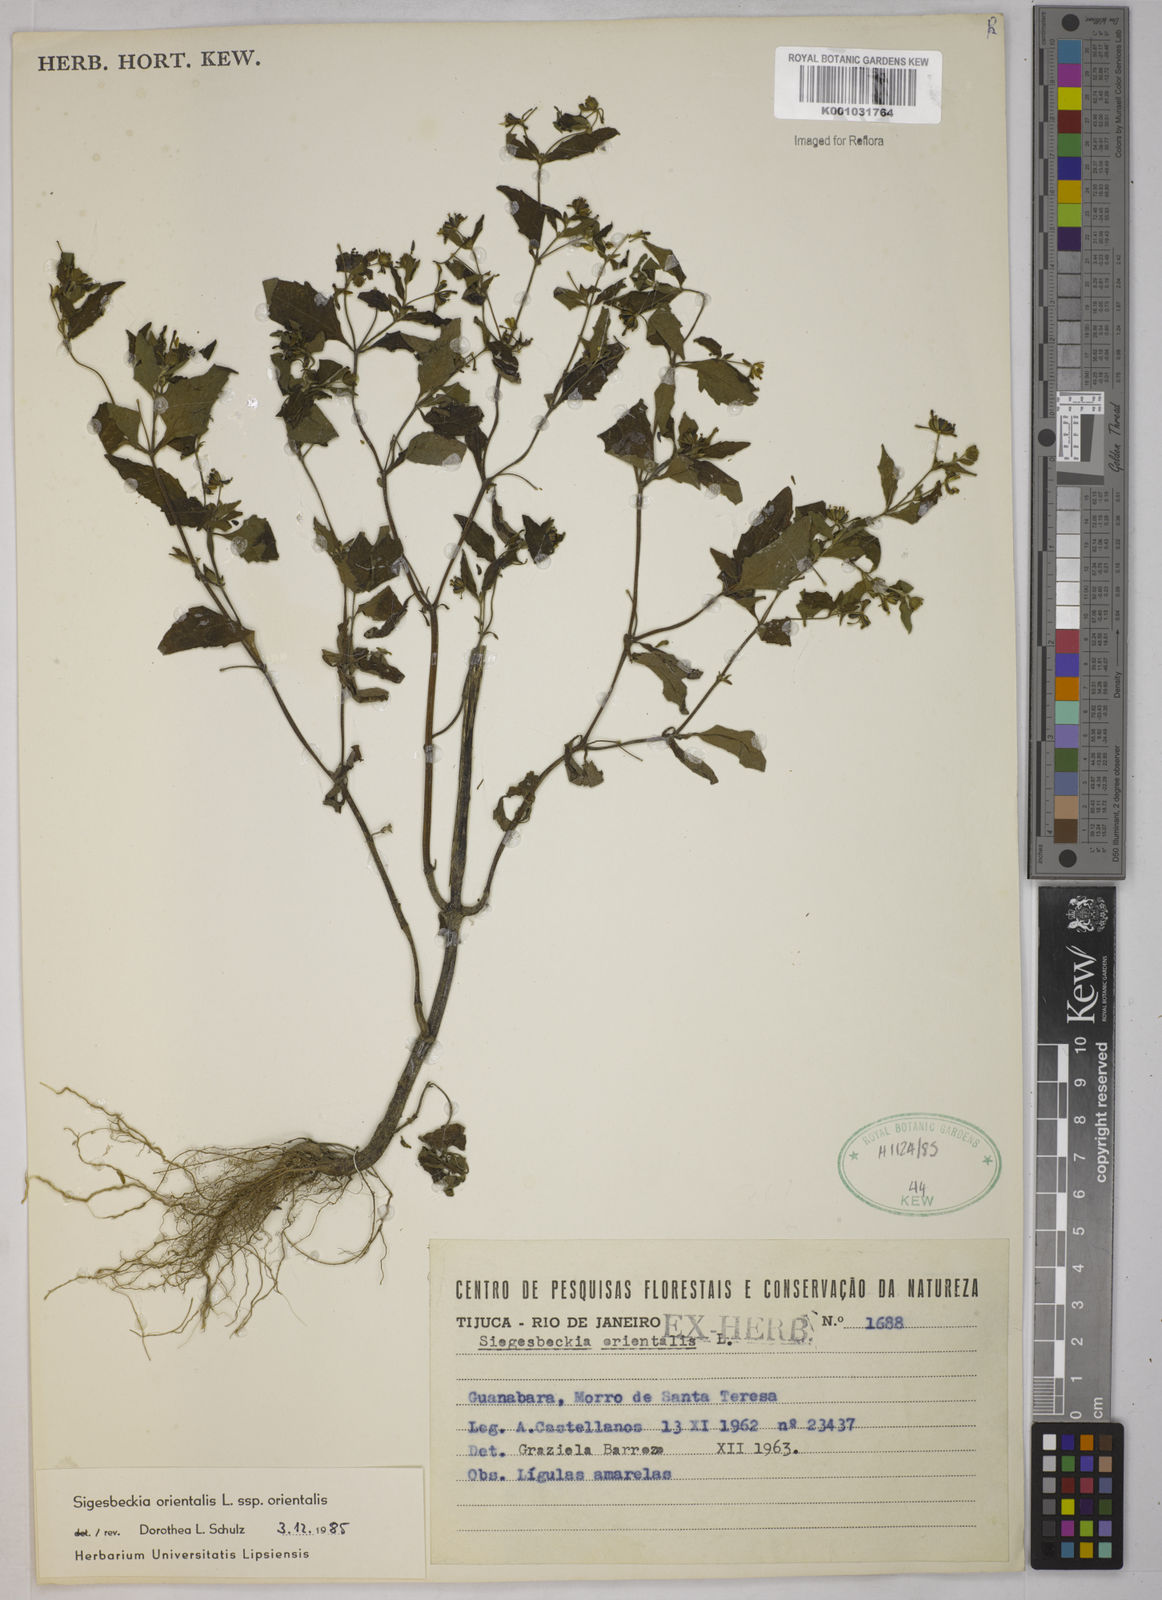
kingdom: Plantae
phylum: Tracheophyta
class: Magnoliopsida
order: Asterales
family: Asteraceae
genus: Sigesbeckia
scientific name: Sigesbeckia orientalis
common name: Eastern st paul's-wort
